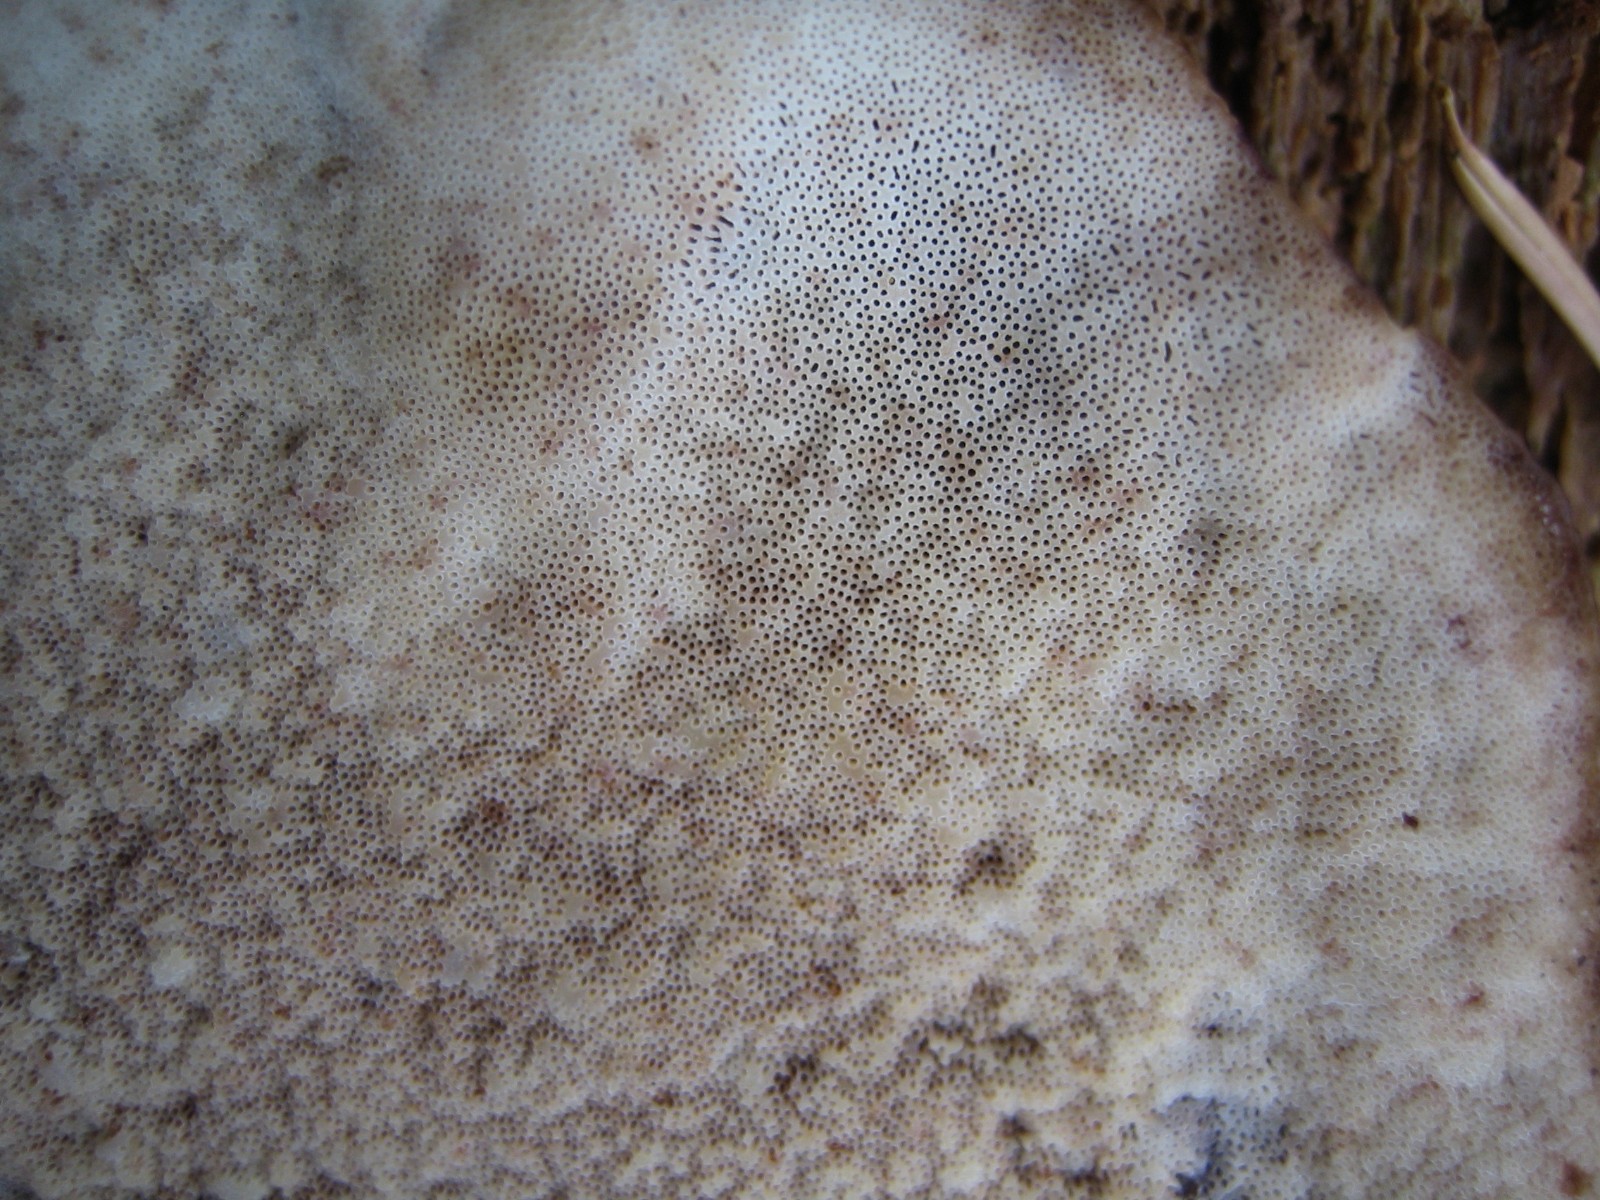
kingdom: Fungi
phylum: Basidiomycota
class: Agaricomycetes
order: Polyporales
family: Ischnodermataceae
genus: Ischnoderma
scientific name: Ischnoderma benzoinum
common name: gran-tjæreporesvamp
